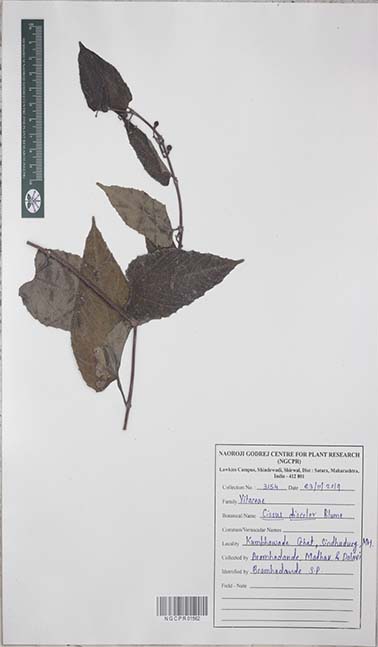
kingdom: Plantae
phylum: Tracheophyta
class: Magnoliopsida
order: Vitales
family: Vitaceae
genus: Cissus
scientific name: Cissus discolor
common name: Climbing-begonia
